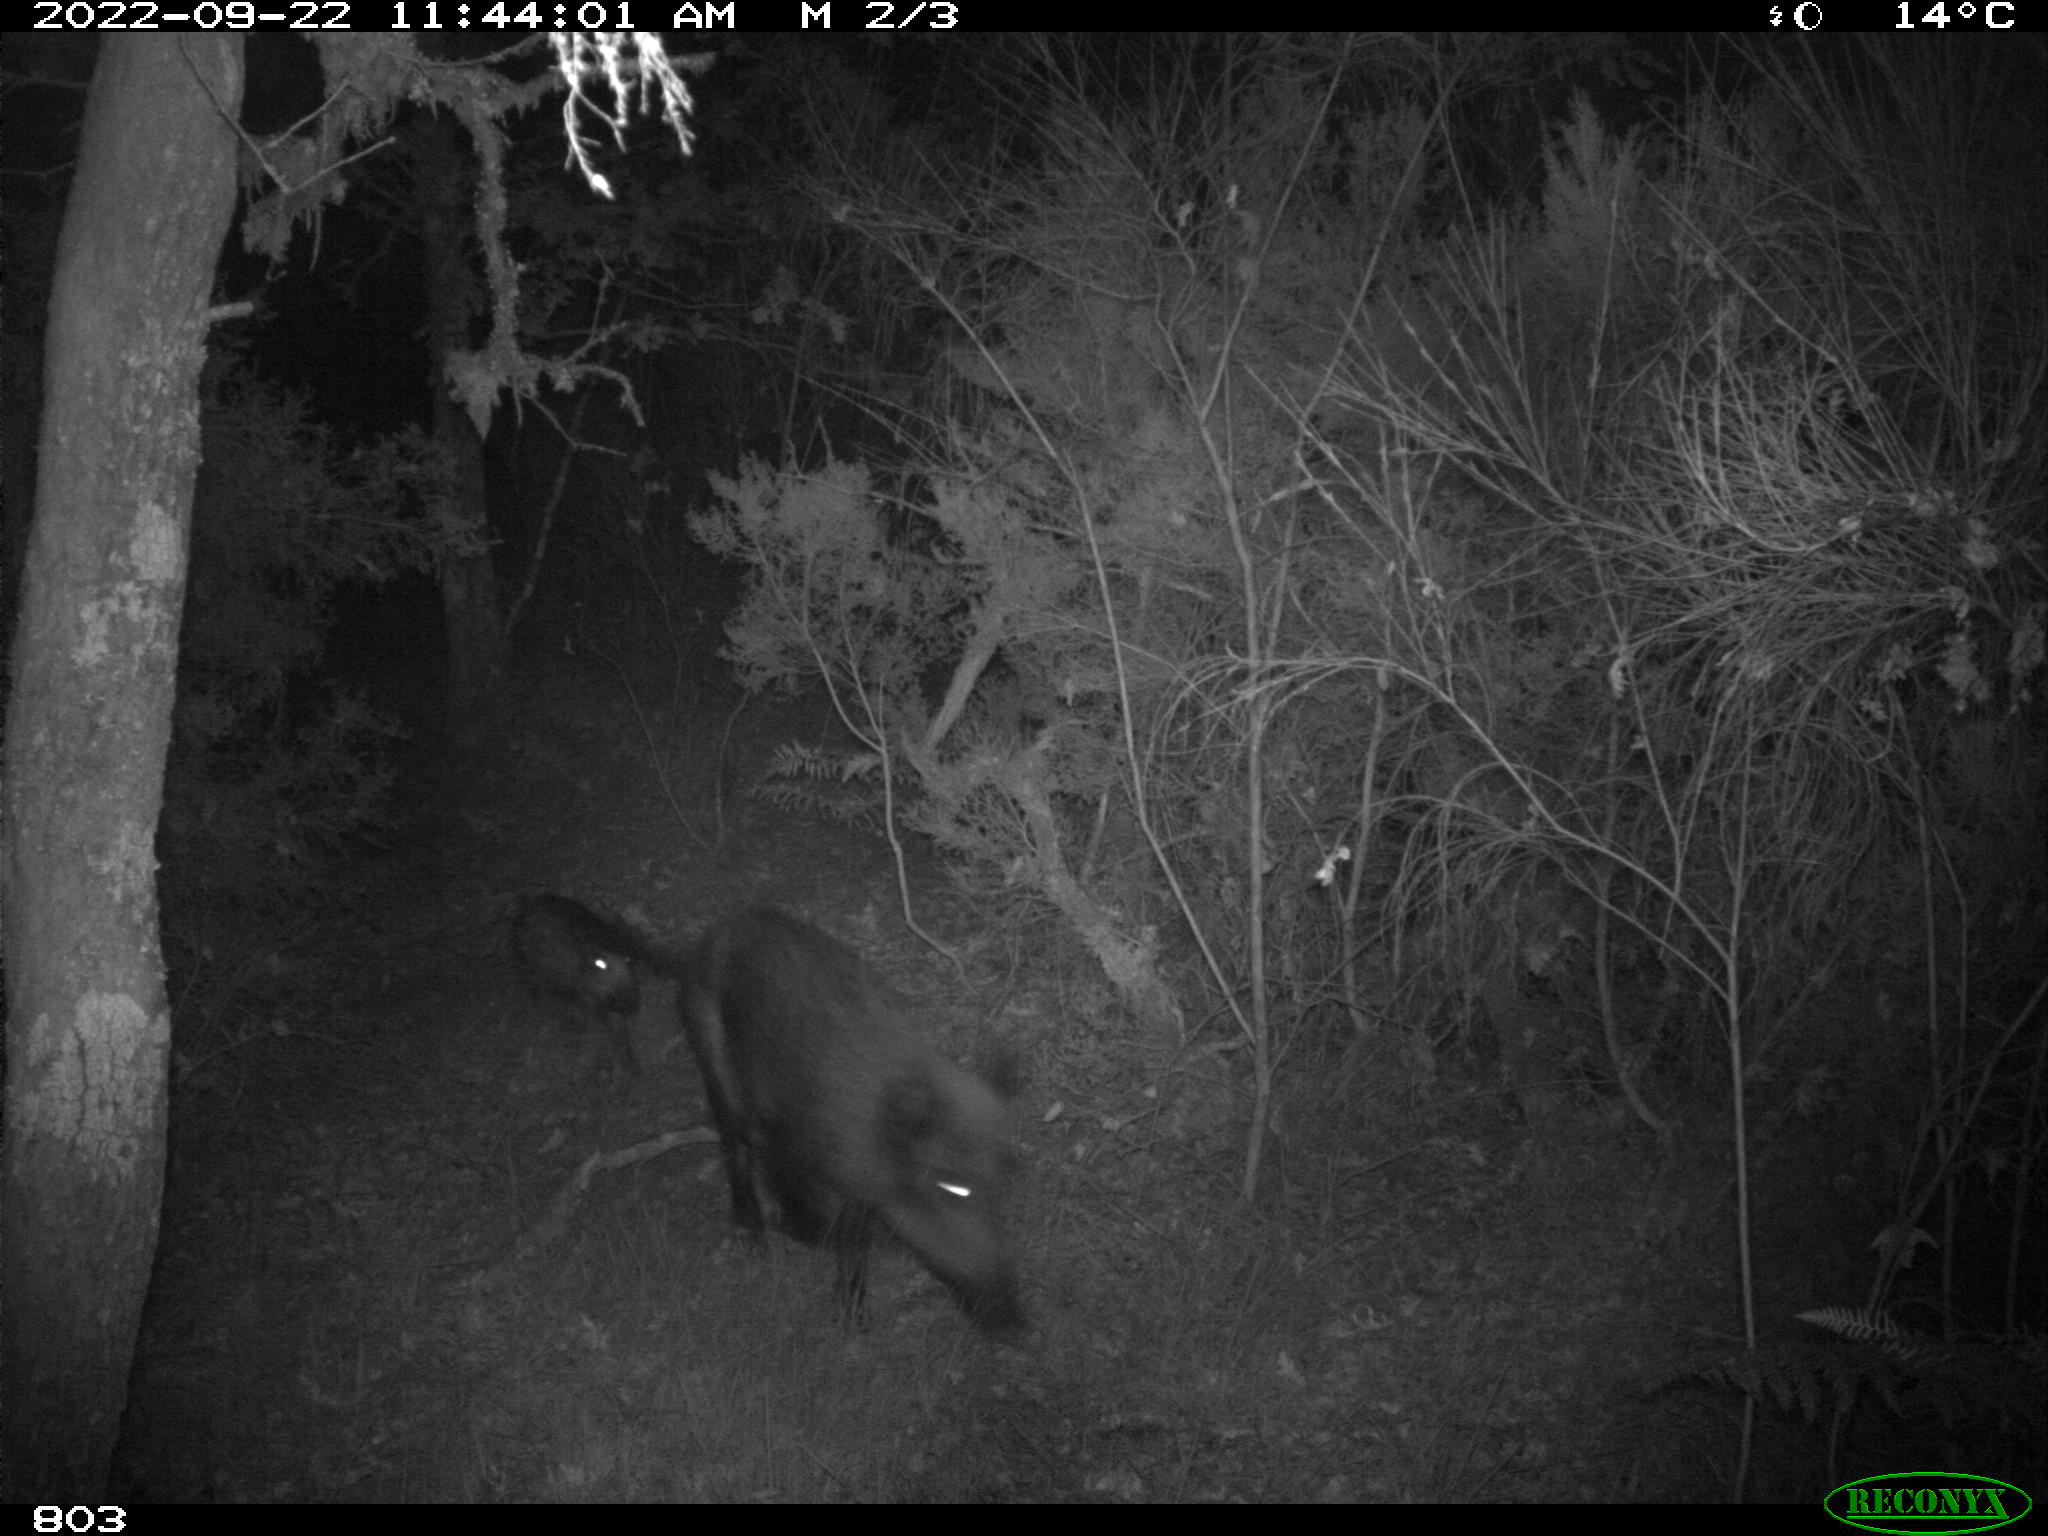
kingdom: Animalia
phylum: Chordata
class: Mammalia
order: Artiodactyla
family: Suidae
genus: Sus
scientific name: Sus scrofa
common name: Wild boar
